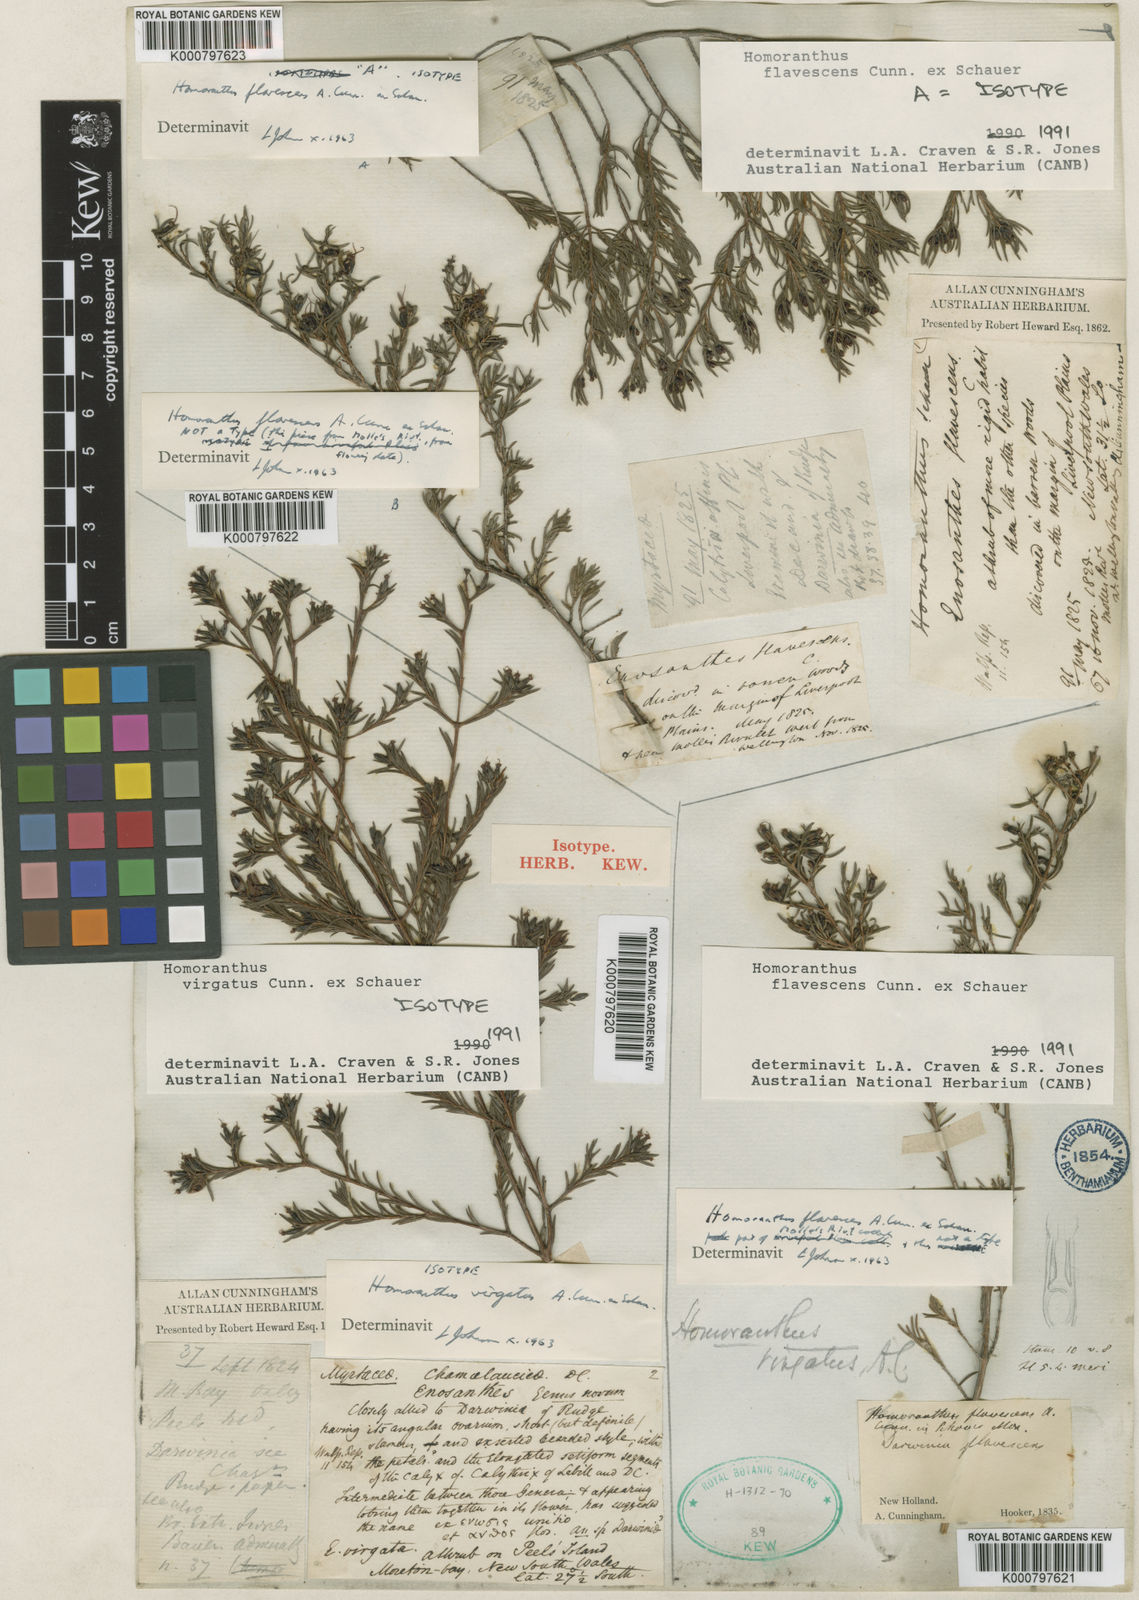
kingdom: Plantae
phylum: Tracheophyta
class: Magnoliopsida
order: Myrtales
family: Myrtaceae
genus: Homoranthus
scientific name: Homoranthus virgatus
